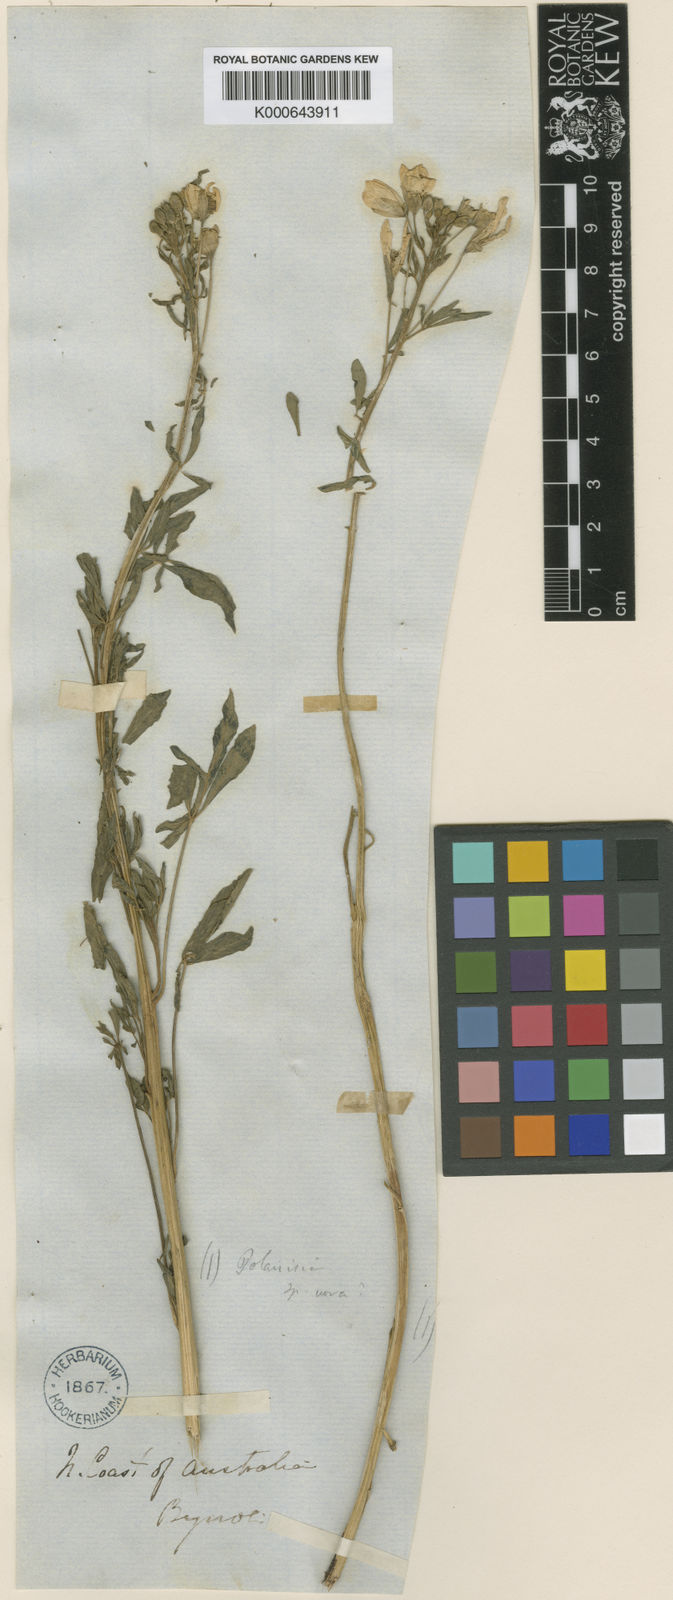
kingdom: Plantae
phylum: Tracheophyta
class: Magnoliopsida
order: Brassicales
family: Cleomaceae
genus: Arivela
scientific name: Arivela viscosa
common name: Asian spiderflower
